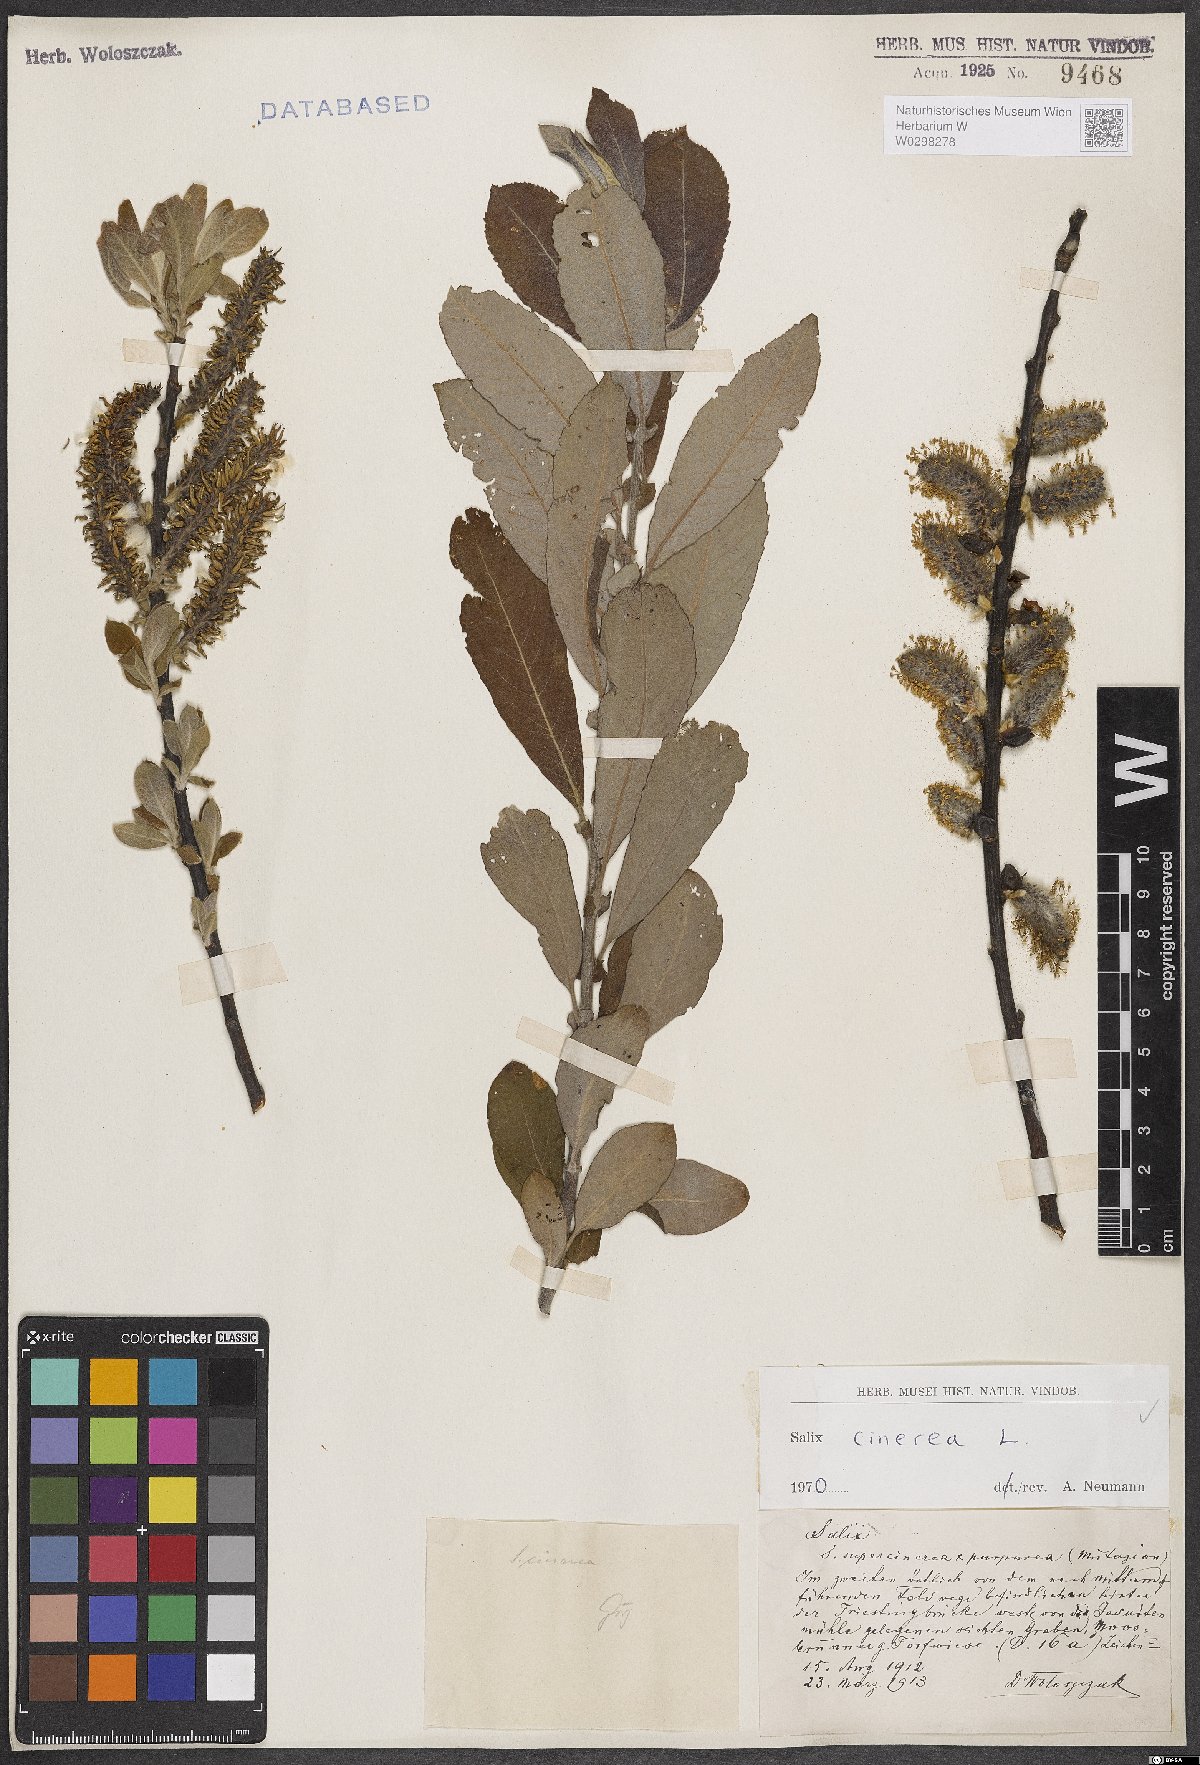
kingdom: Plantae
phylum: Tracheophyta
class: Magnoliopsida
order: Malpighiales
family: Salicaceae
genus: Salix
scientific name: Salix cinerea
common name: Common sallow
